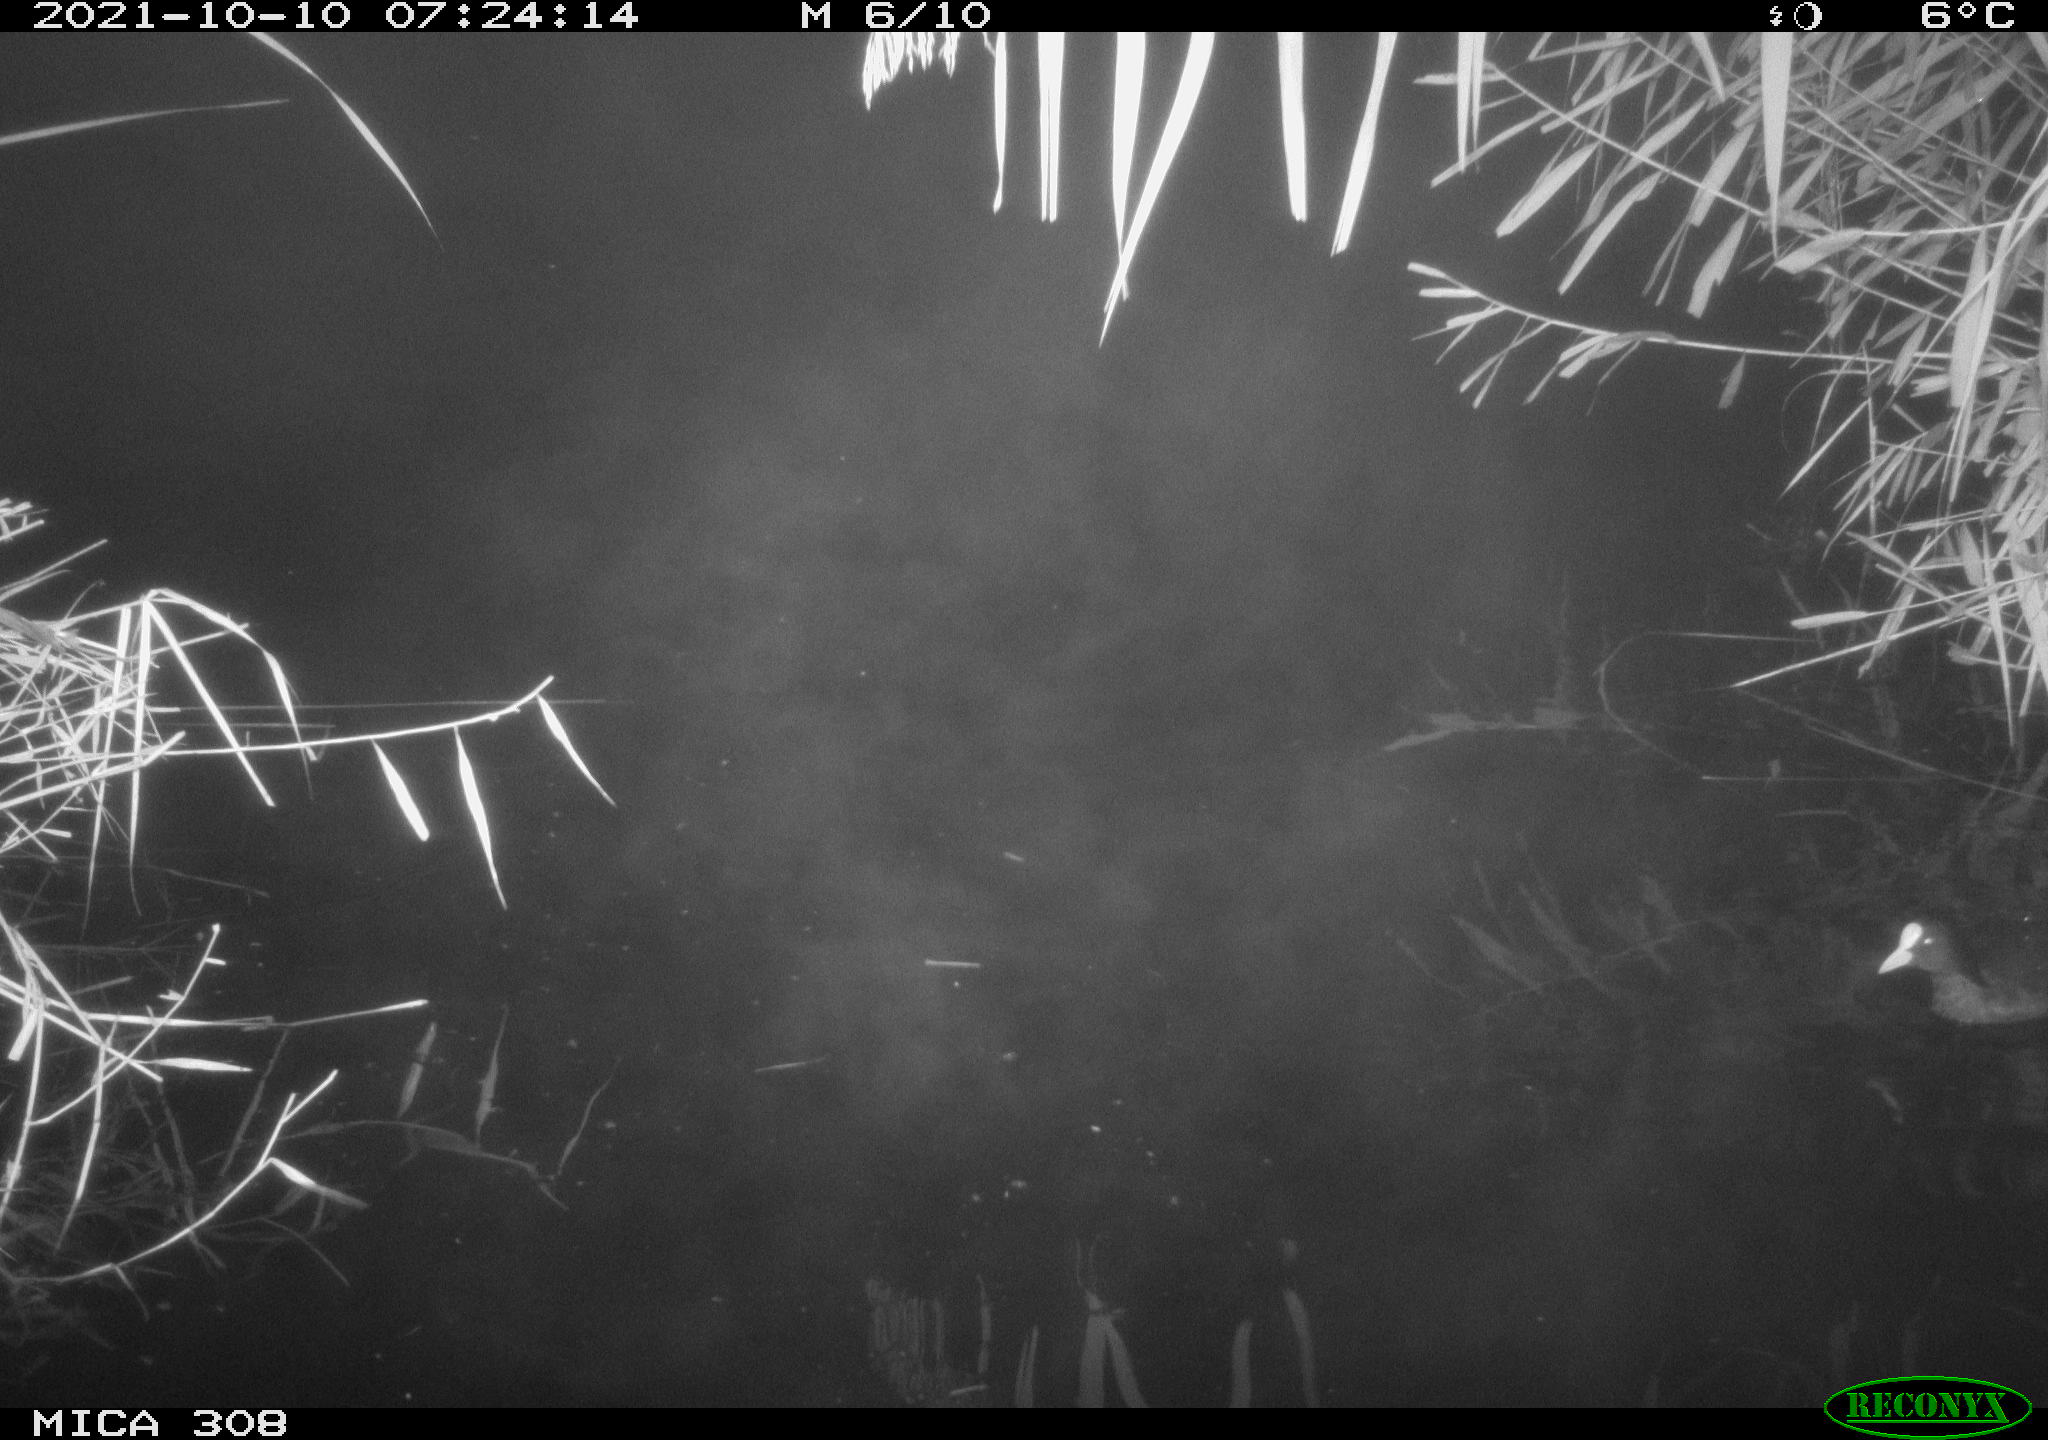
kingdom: Animalia
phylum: Chordata
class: Aves
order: Gruiformes
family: Rallidae
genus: Fulica
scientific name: Fulica atra
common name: Eurasian coot
